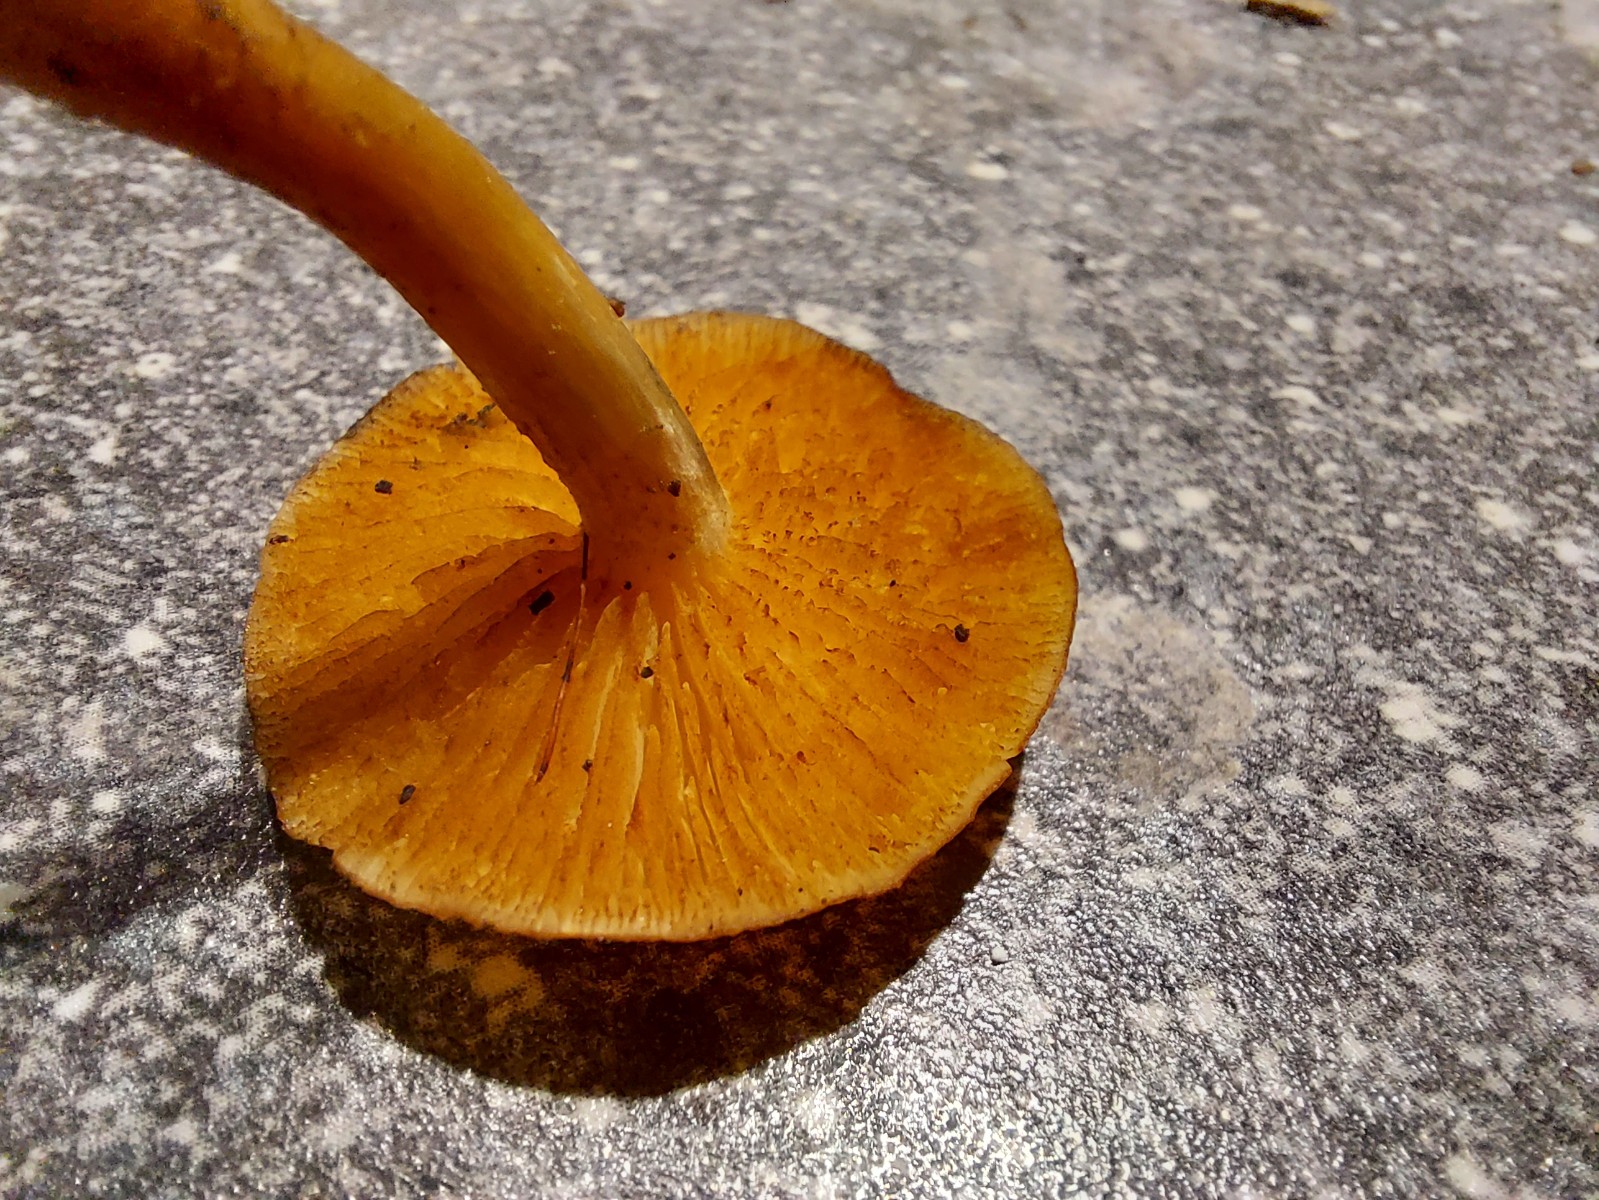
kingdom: Fungi
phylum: Basidiomycota
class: Agaricomycetes
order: Agaricales
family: Hymenogastraceae
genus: Gymnopilus
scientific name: Gymnopilus
